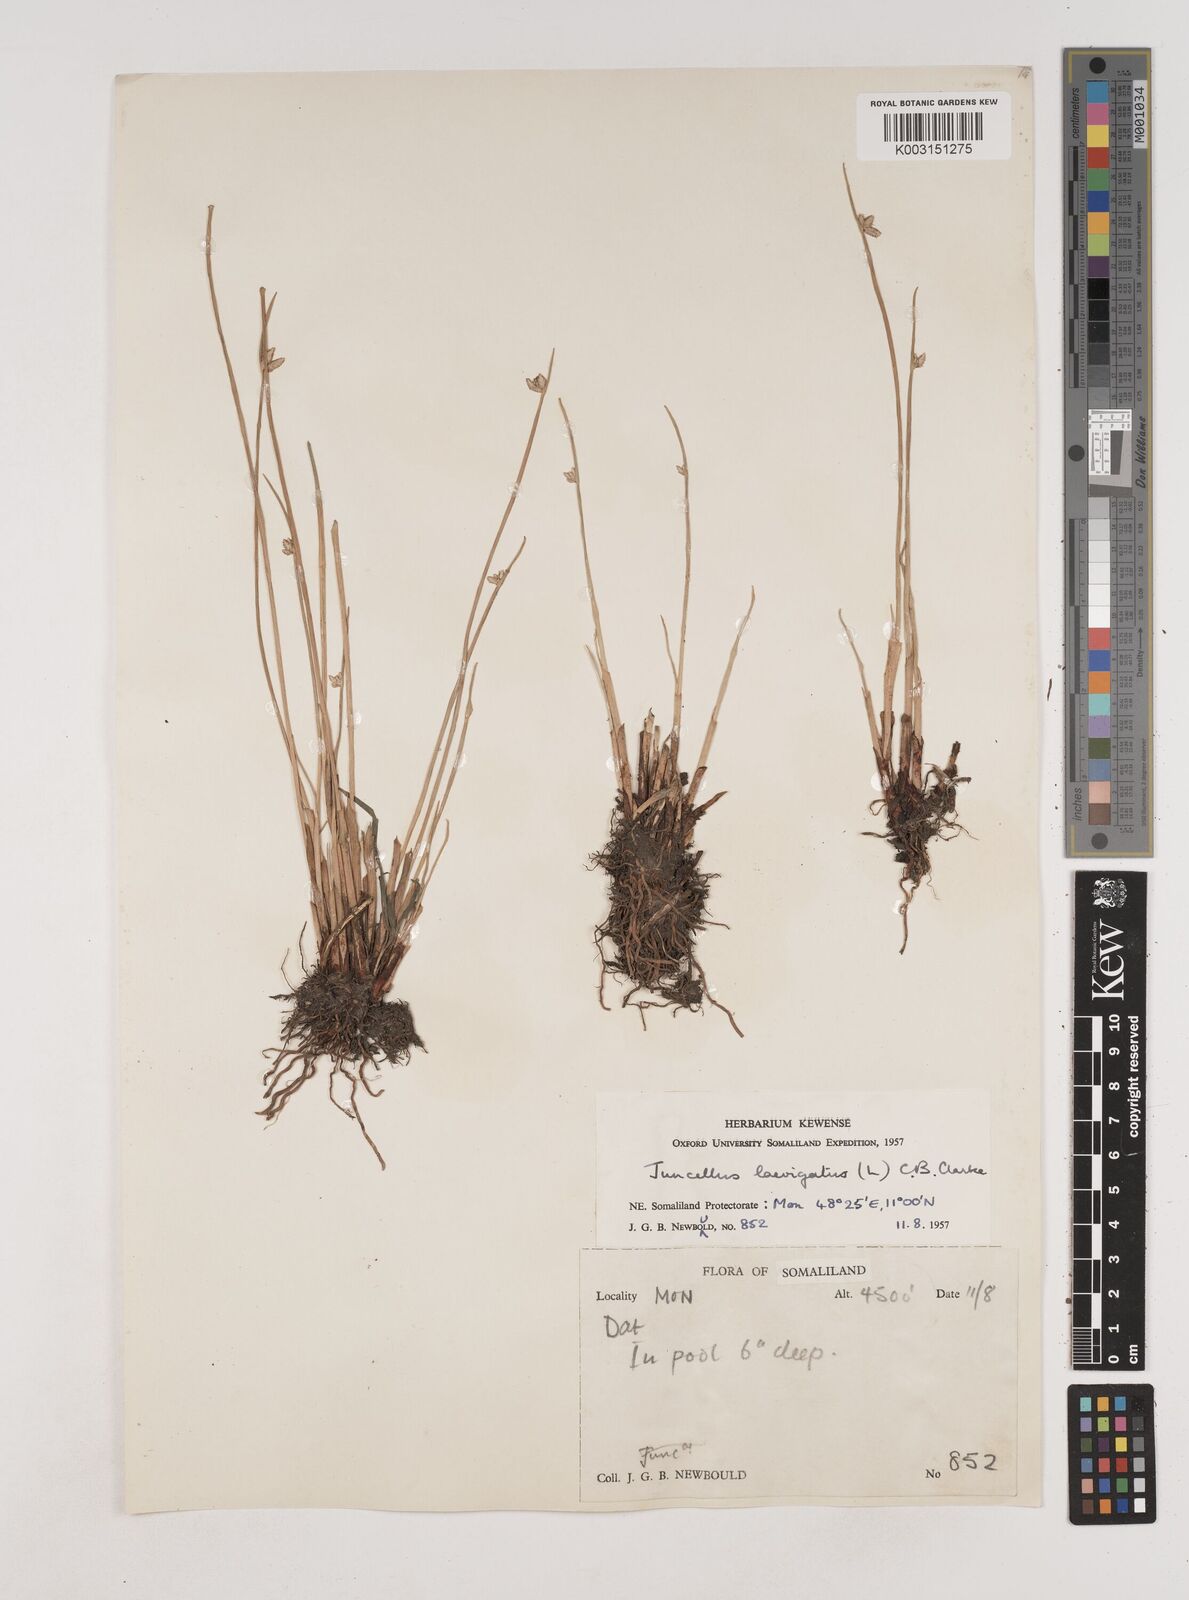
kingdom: Plantae
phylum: Tracheophyta
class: Liliopsida
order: Poales
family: Cyperaceae
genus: Cyperus
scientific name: Cyperus laevigatus
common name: Smooth flat sedge
